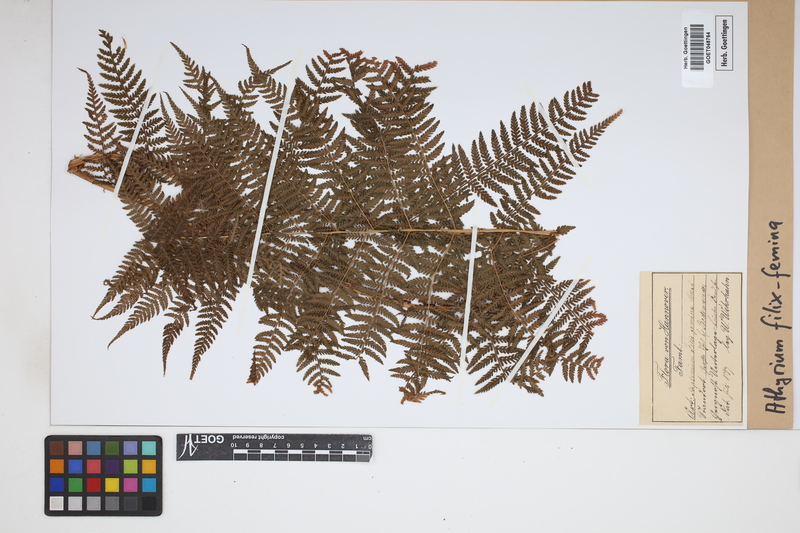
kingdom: Plantae
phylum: Tracheophyta
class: Polypodiopsida
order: Polypodiales
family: Athyriaceae
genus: Athyrium
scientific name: Athyrium filix-femina
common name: Lady fern
